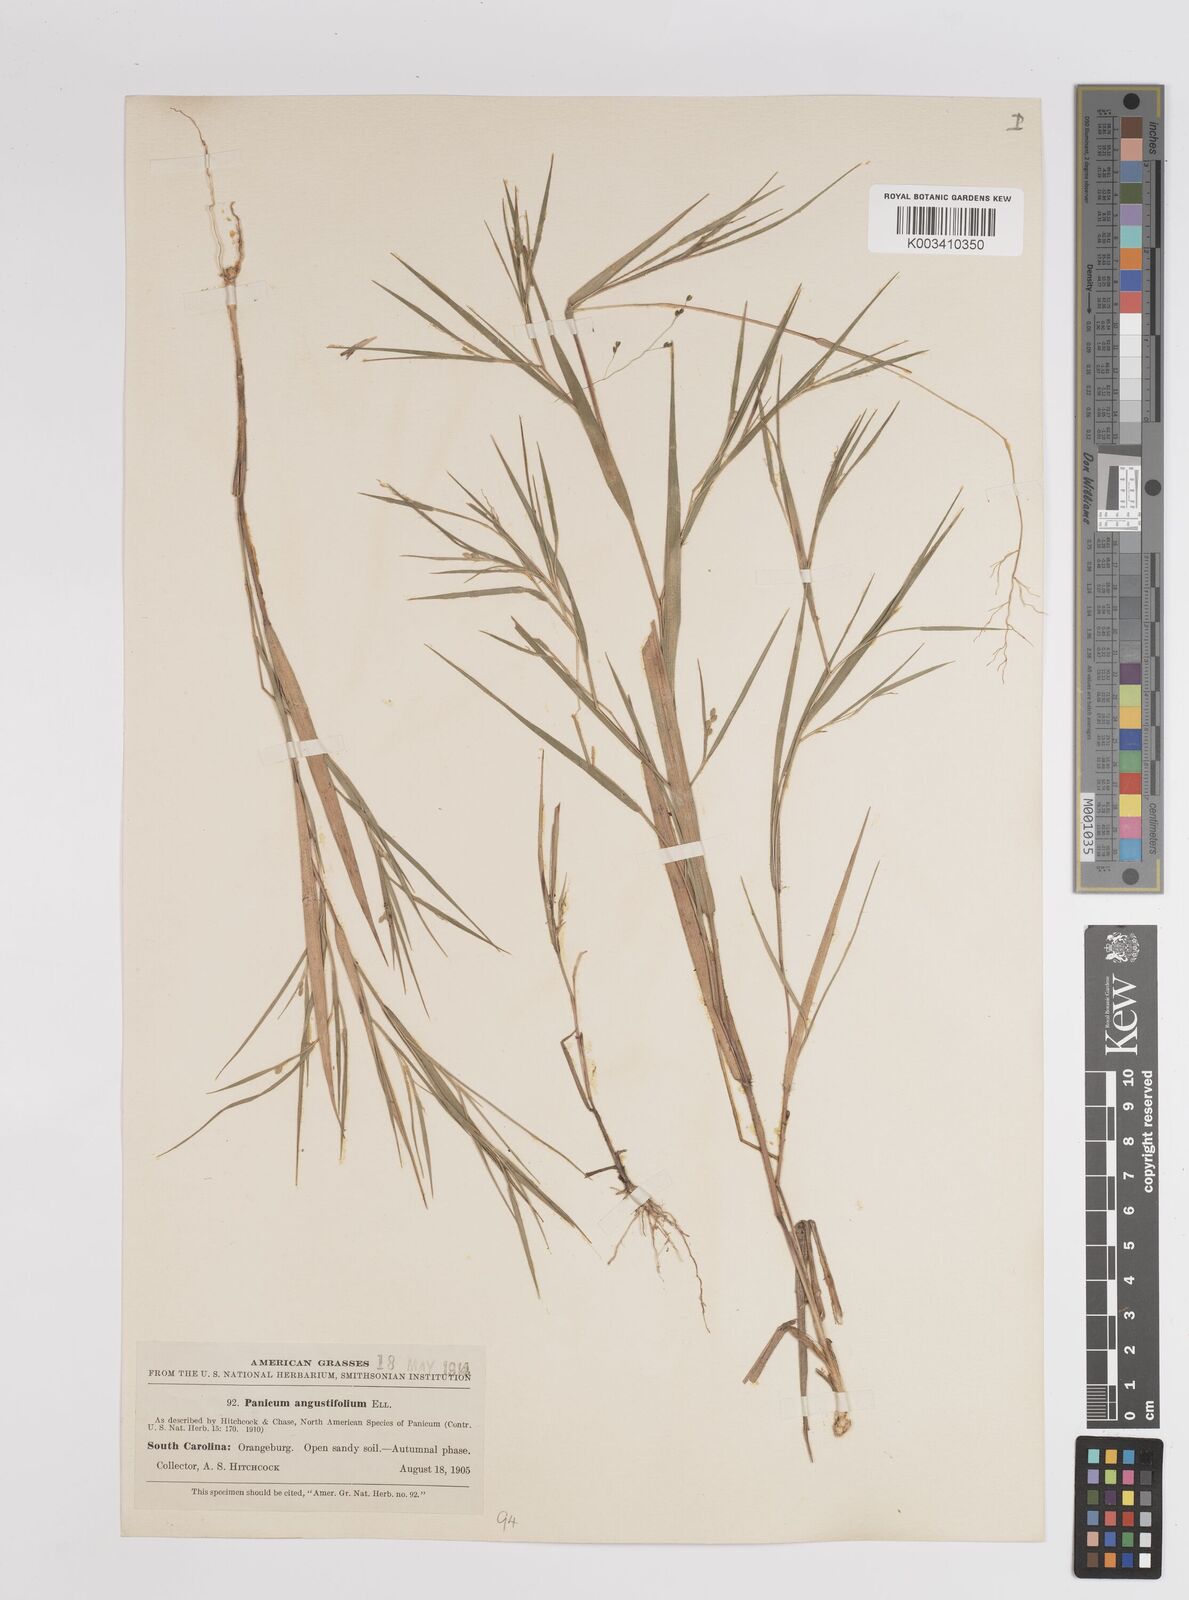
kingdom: Plantae
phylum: Tracheophyta
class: Liliopsida
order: Poales
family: Poaceae
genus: Dichanthelium
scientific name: Dichanthelium angustifolium
